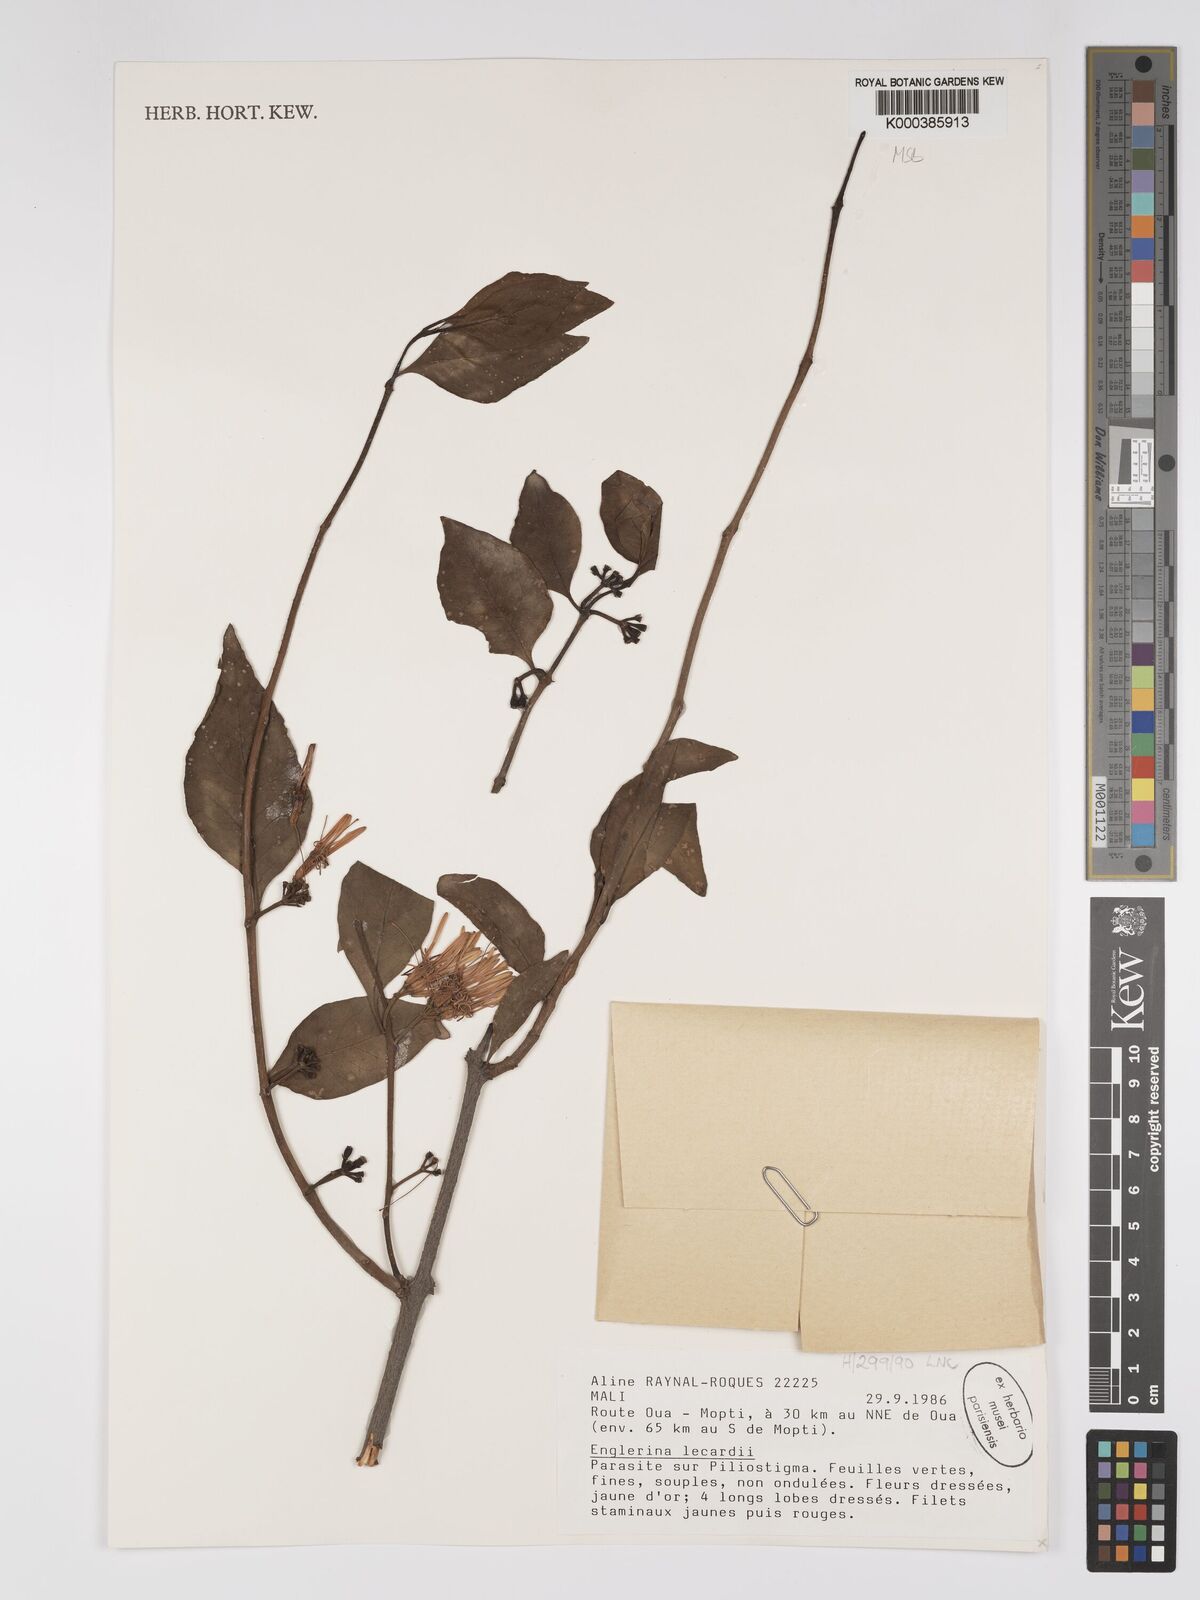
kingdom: Plantae
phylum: Tracheophyta
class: Magnoliopsida
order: Santalales
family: Loranthaceae
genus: Englerina
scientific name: Englerina lecardii
